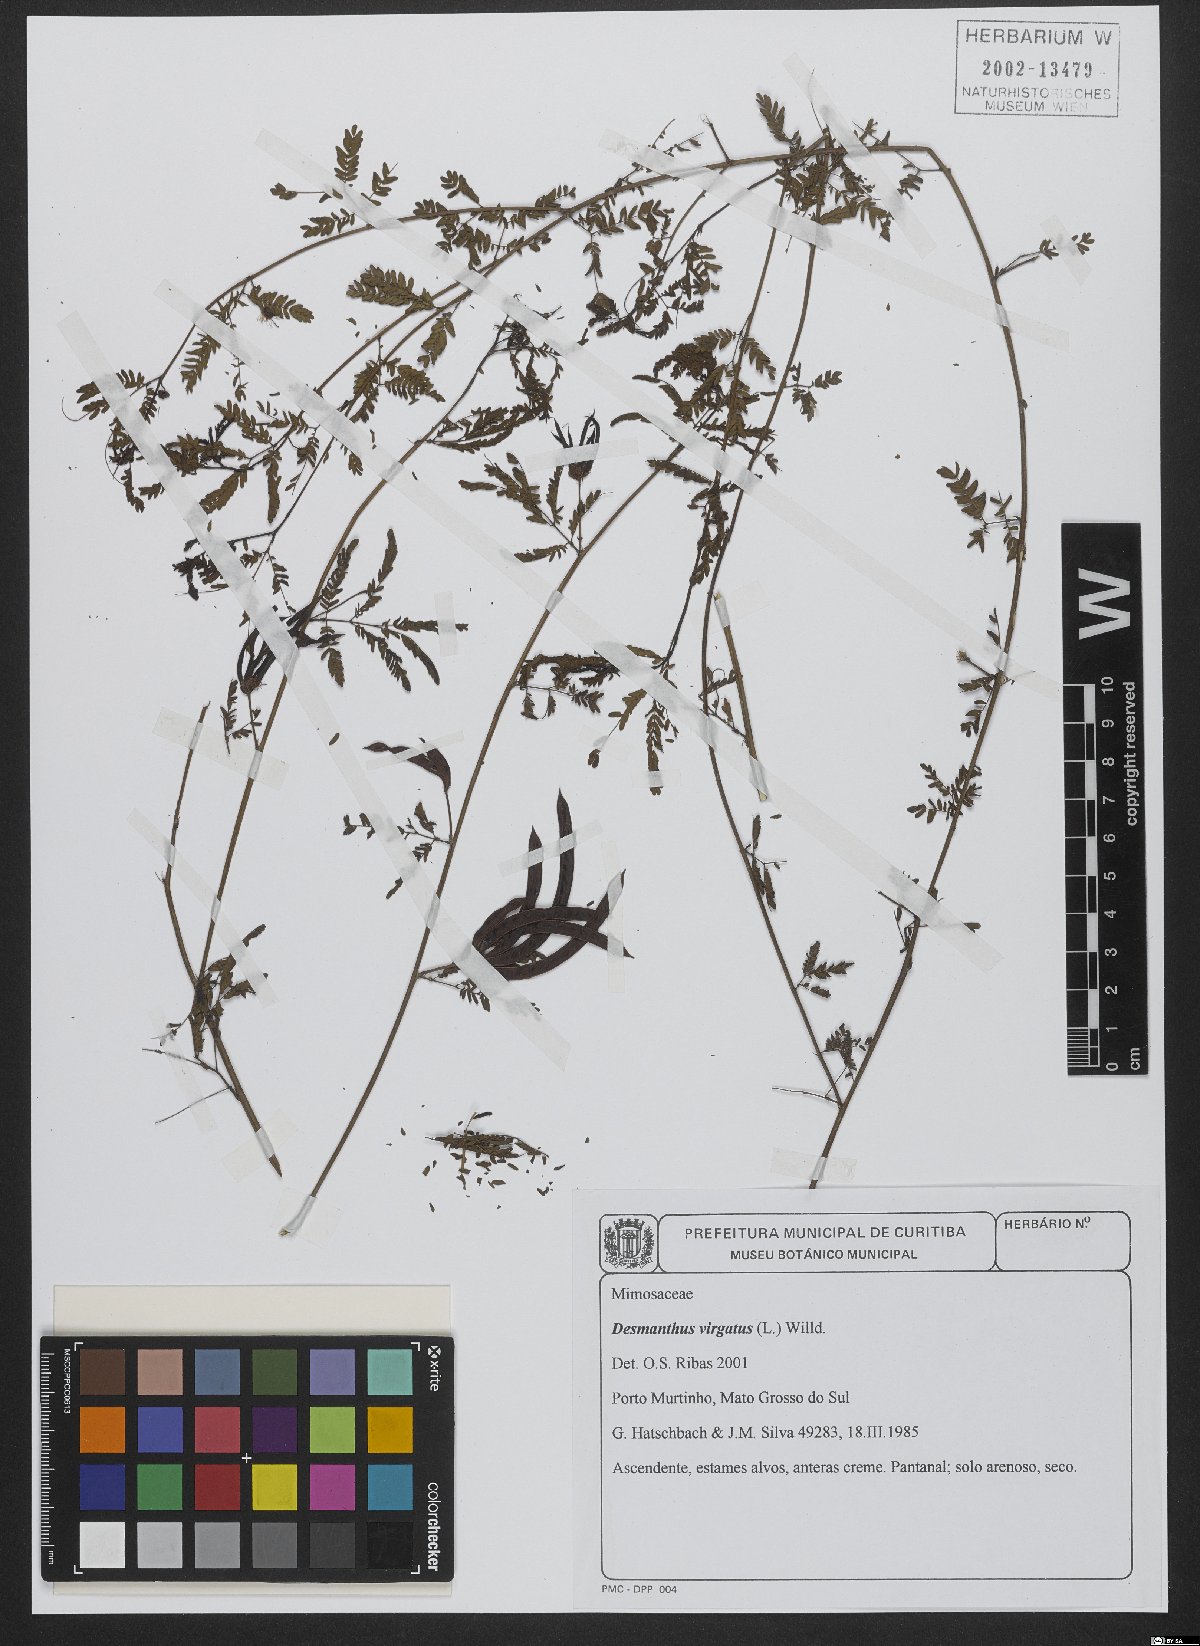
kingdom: Plantae
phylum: Tracheophyta
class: Magnoliopsida
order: Fabales
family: Fabaceae
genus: Desmanthus
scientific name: Desmanthus virgatus
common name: Wild tantan
